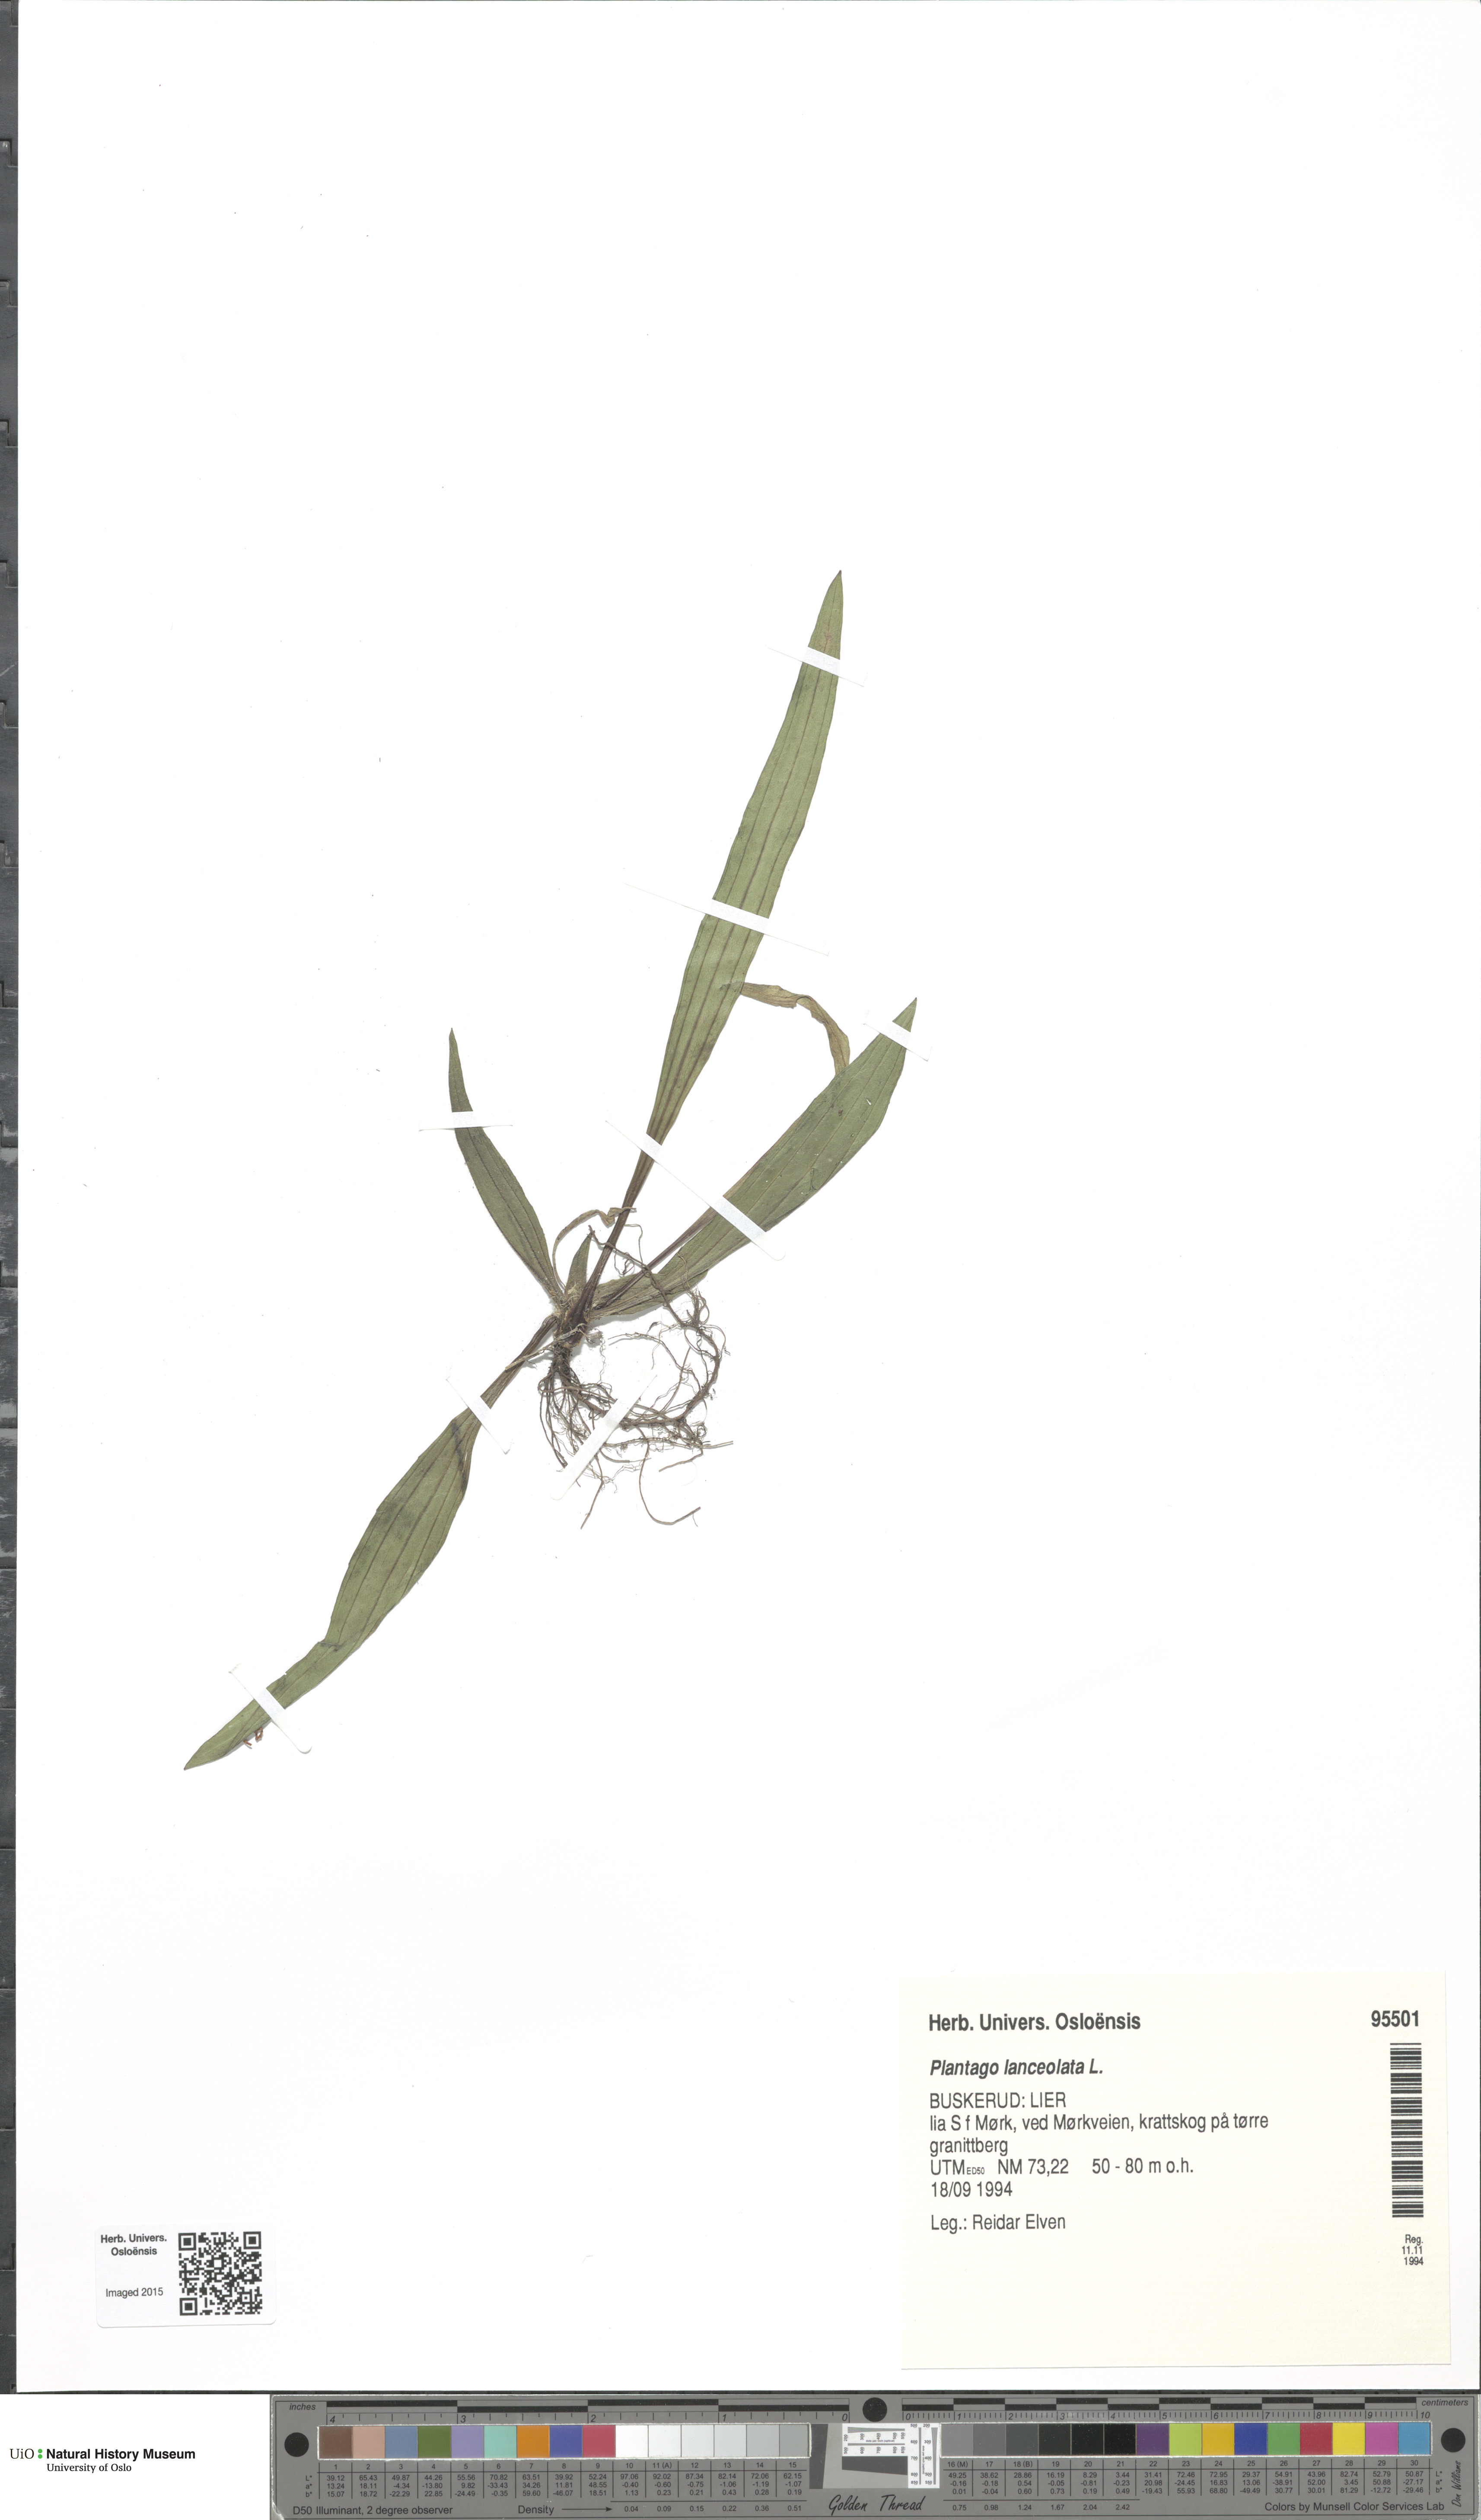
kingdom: Plantae
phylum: Tracheophyta
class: Magnoliopsida
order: Lamiales
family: Plantaginaceae
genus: Plantago
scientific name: Plantago lanceolata
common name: Ribwort plantain
